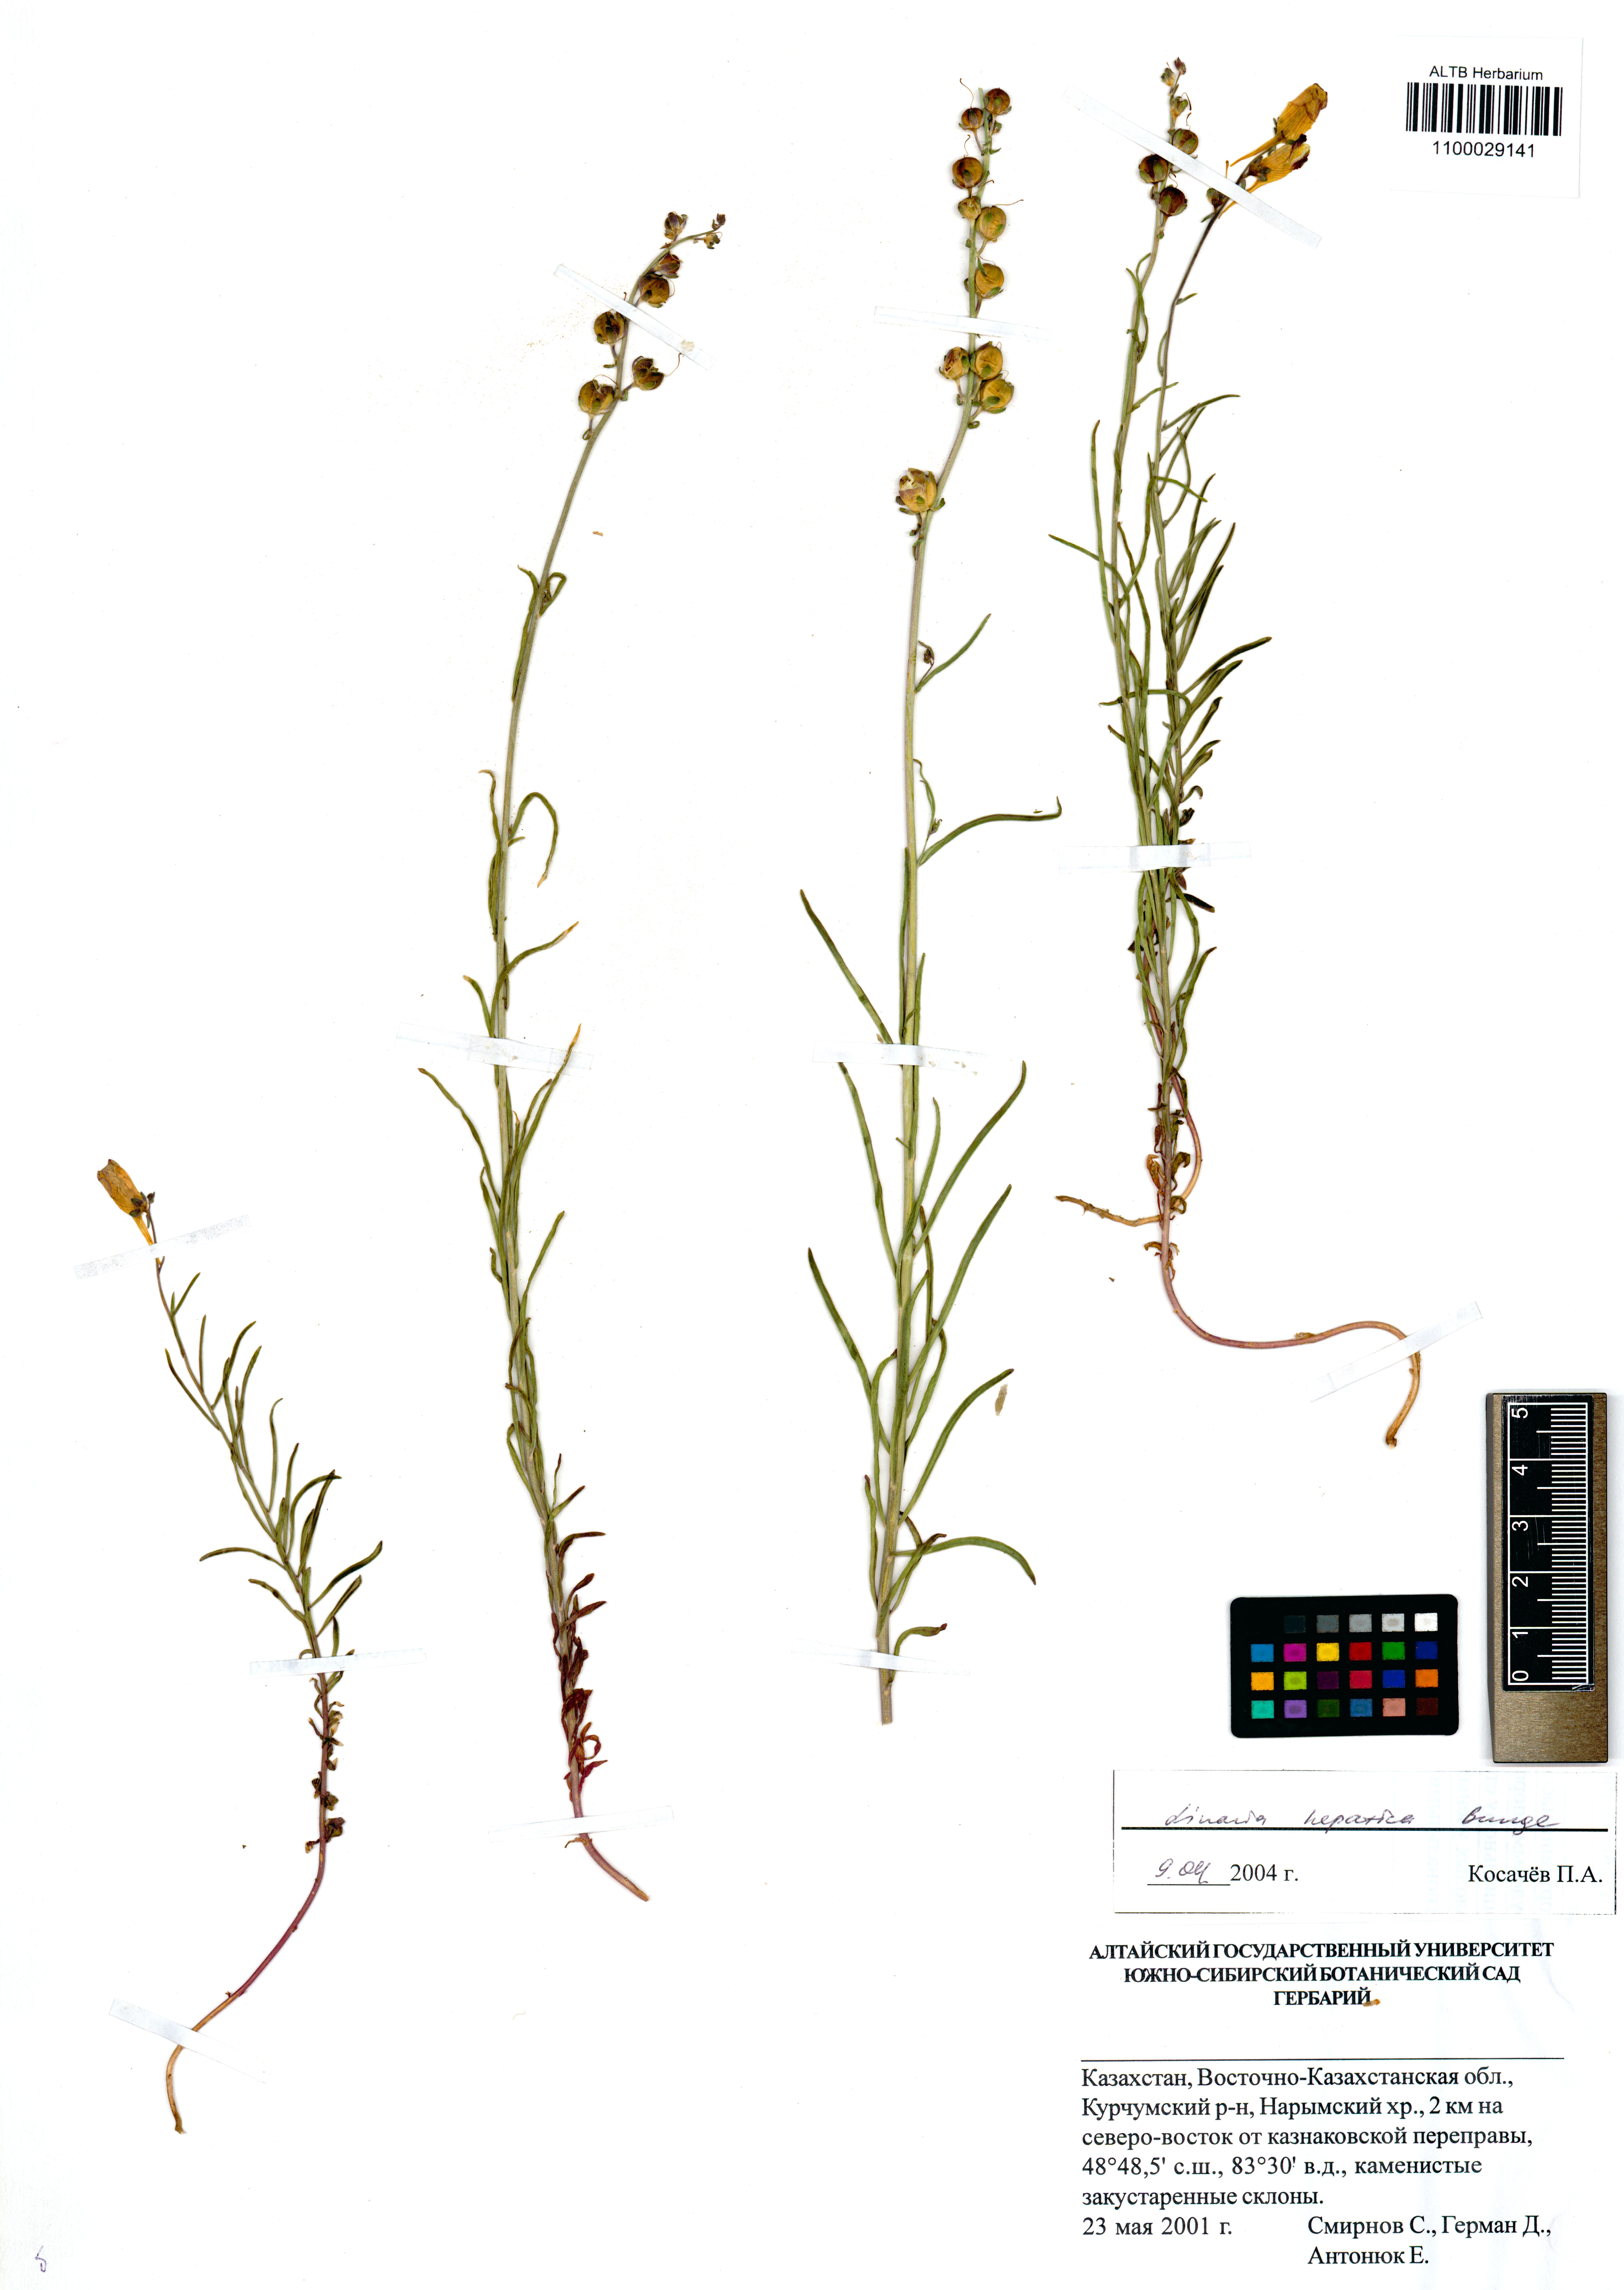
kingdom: Plantae
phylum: Tracheophyta
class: Magnoliopsida
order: Lamiales
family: Plantaginaceae
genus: Linaria
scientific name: Linaria hepatica
